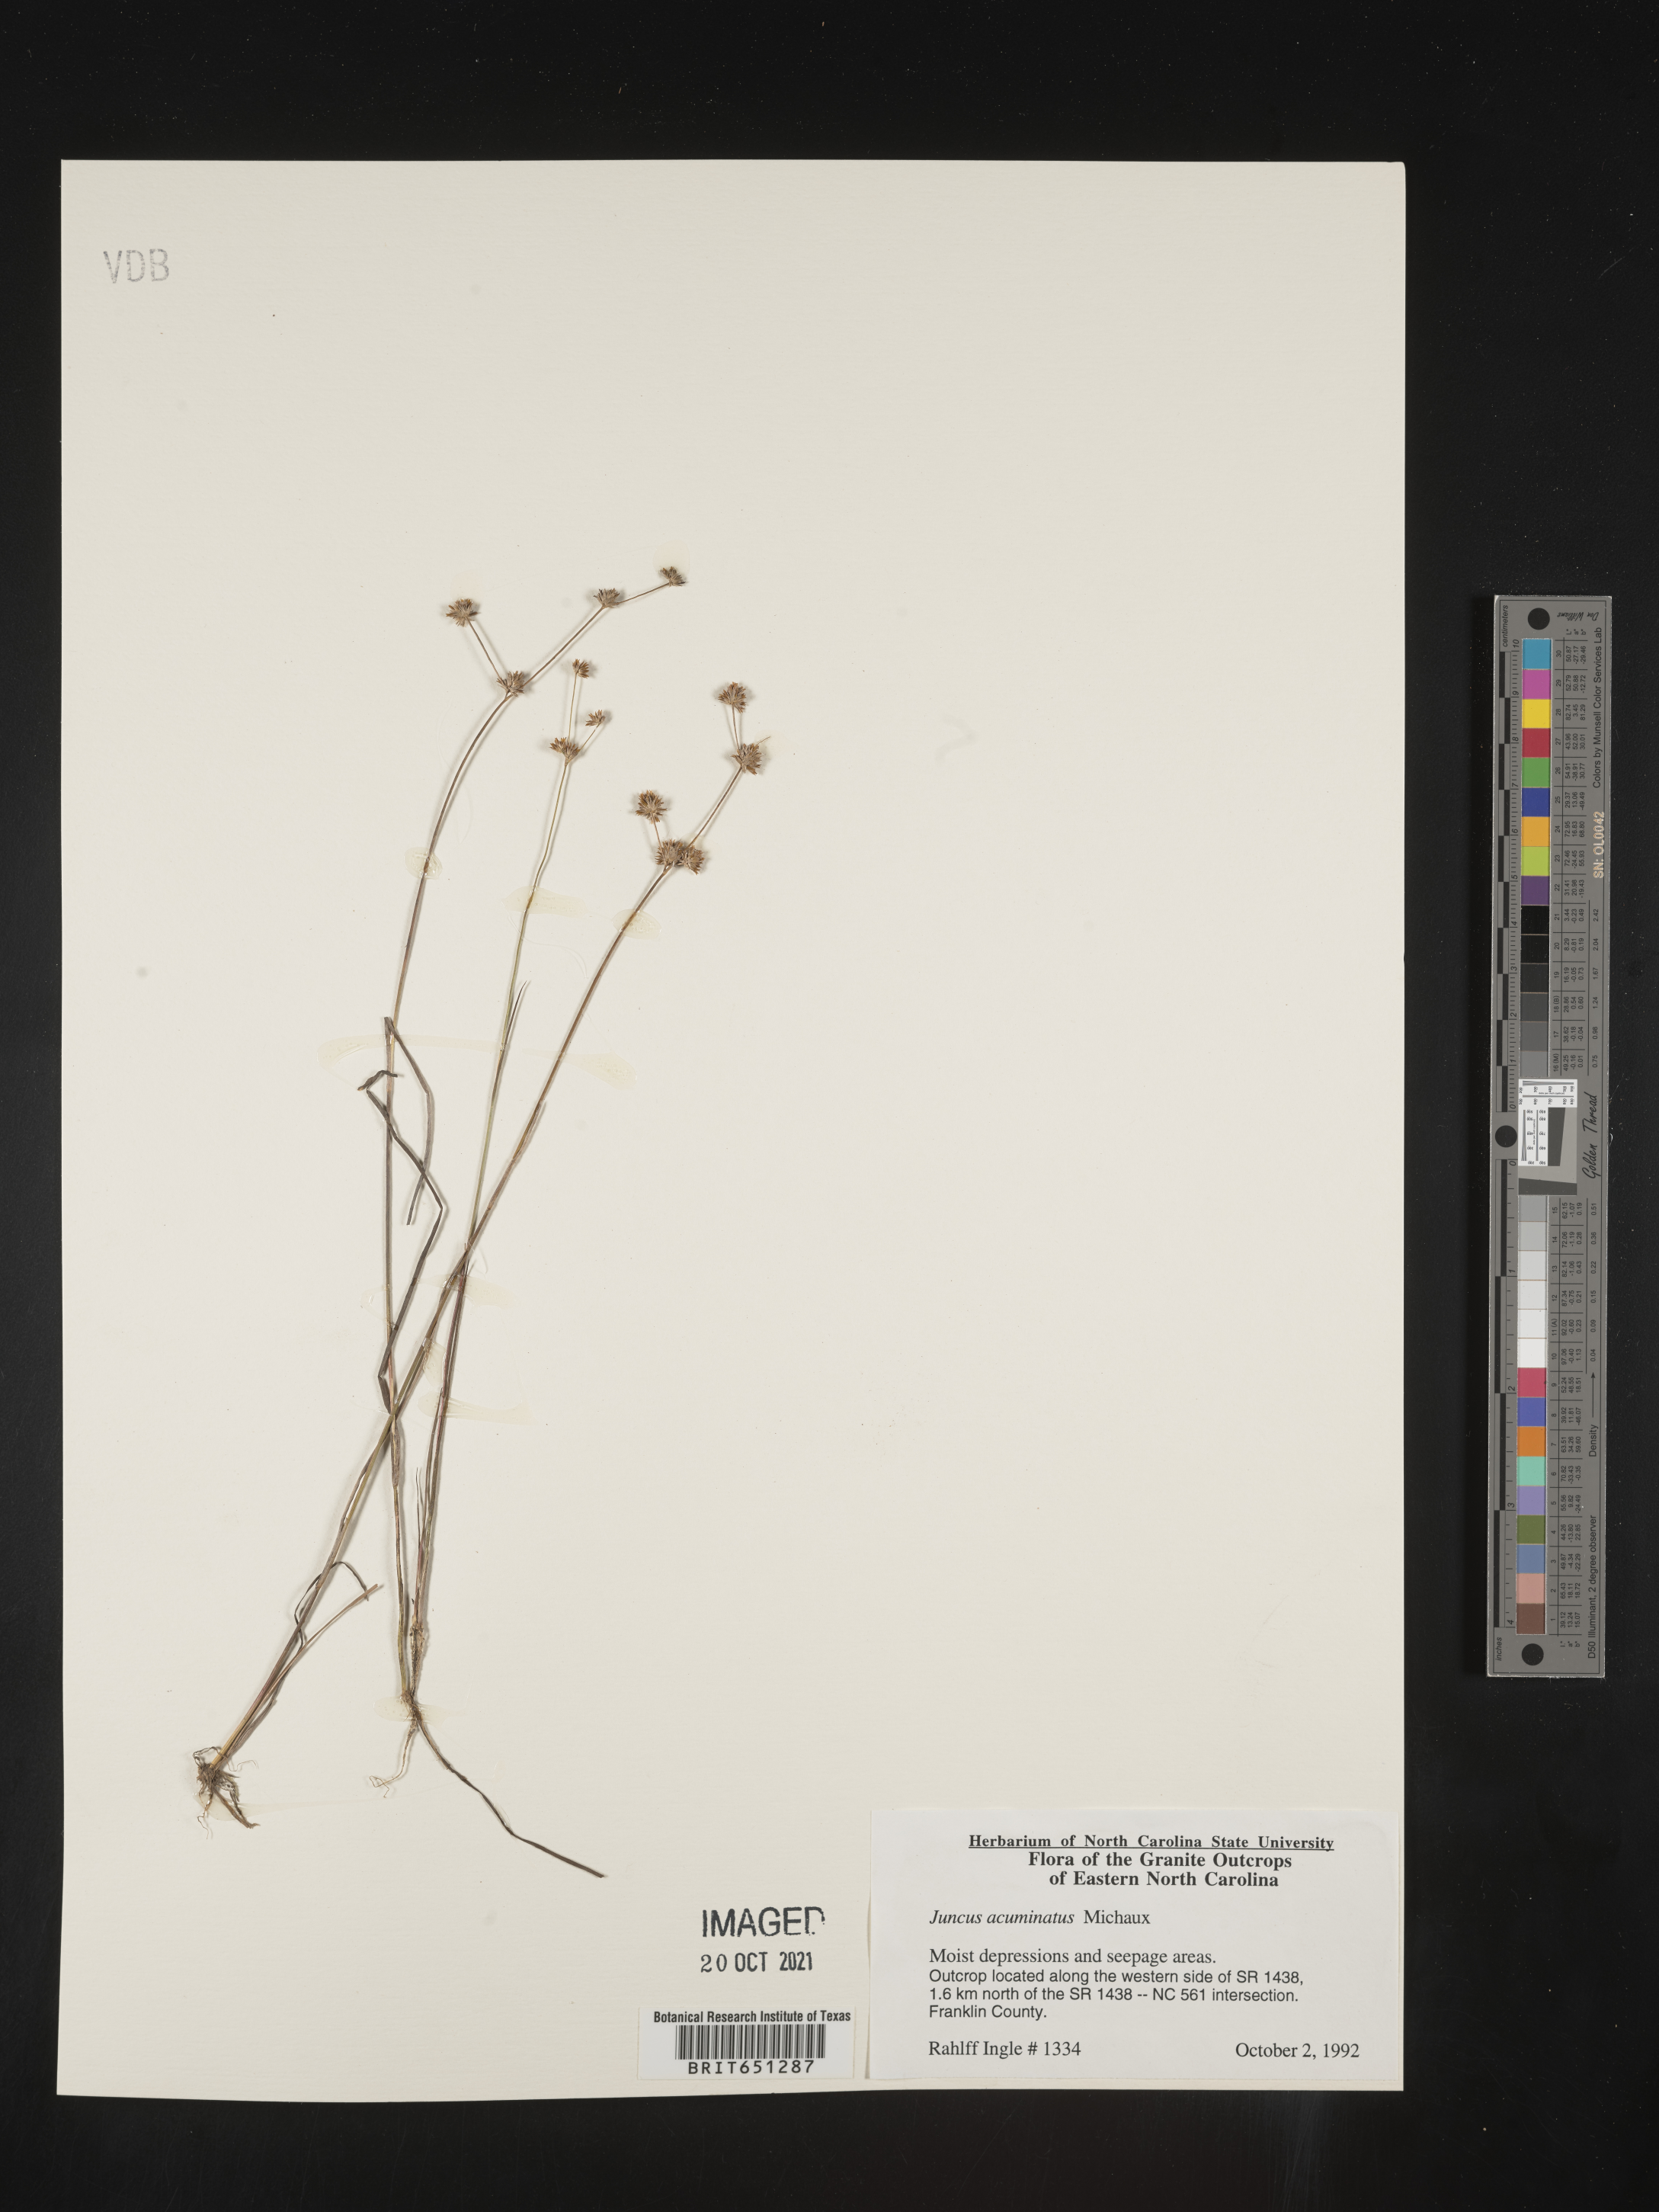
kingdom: Plantae
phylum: Tracheophyta
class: Liliopsida
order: Poales
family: Juncaceae
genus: Juncus
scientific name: Juncus acuminatus
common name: Knotty-leaved rush
